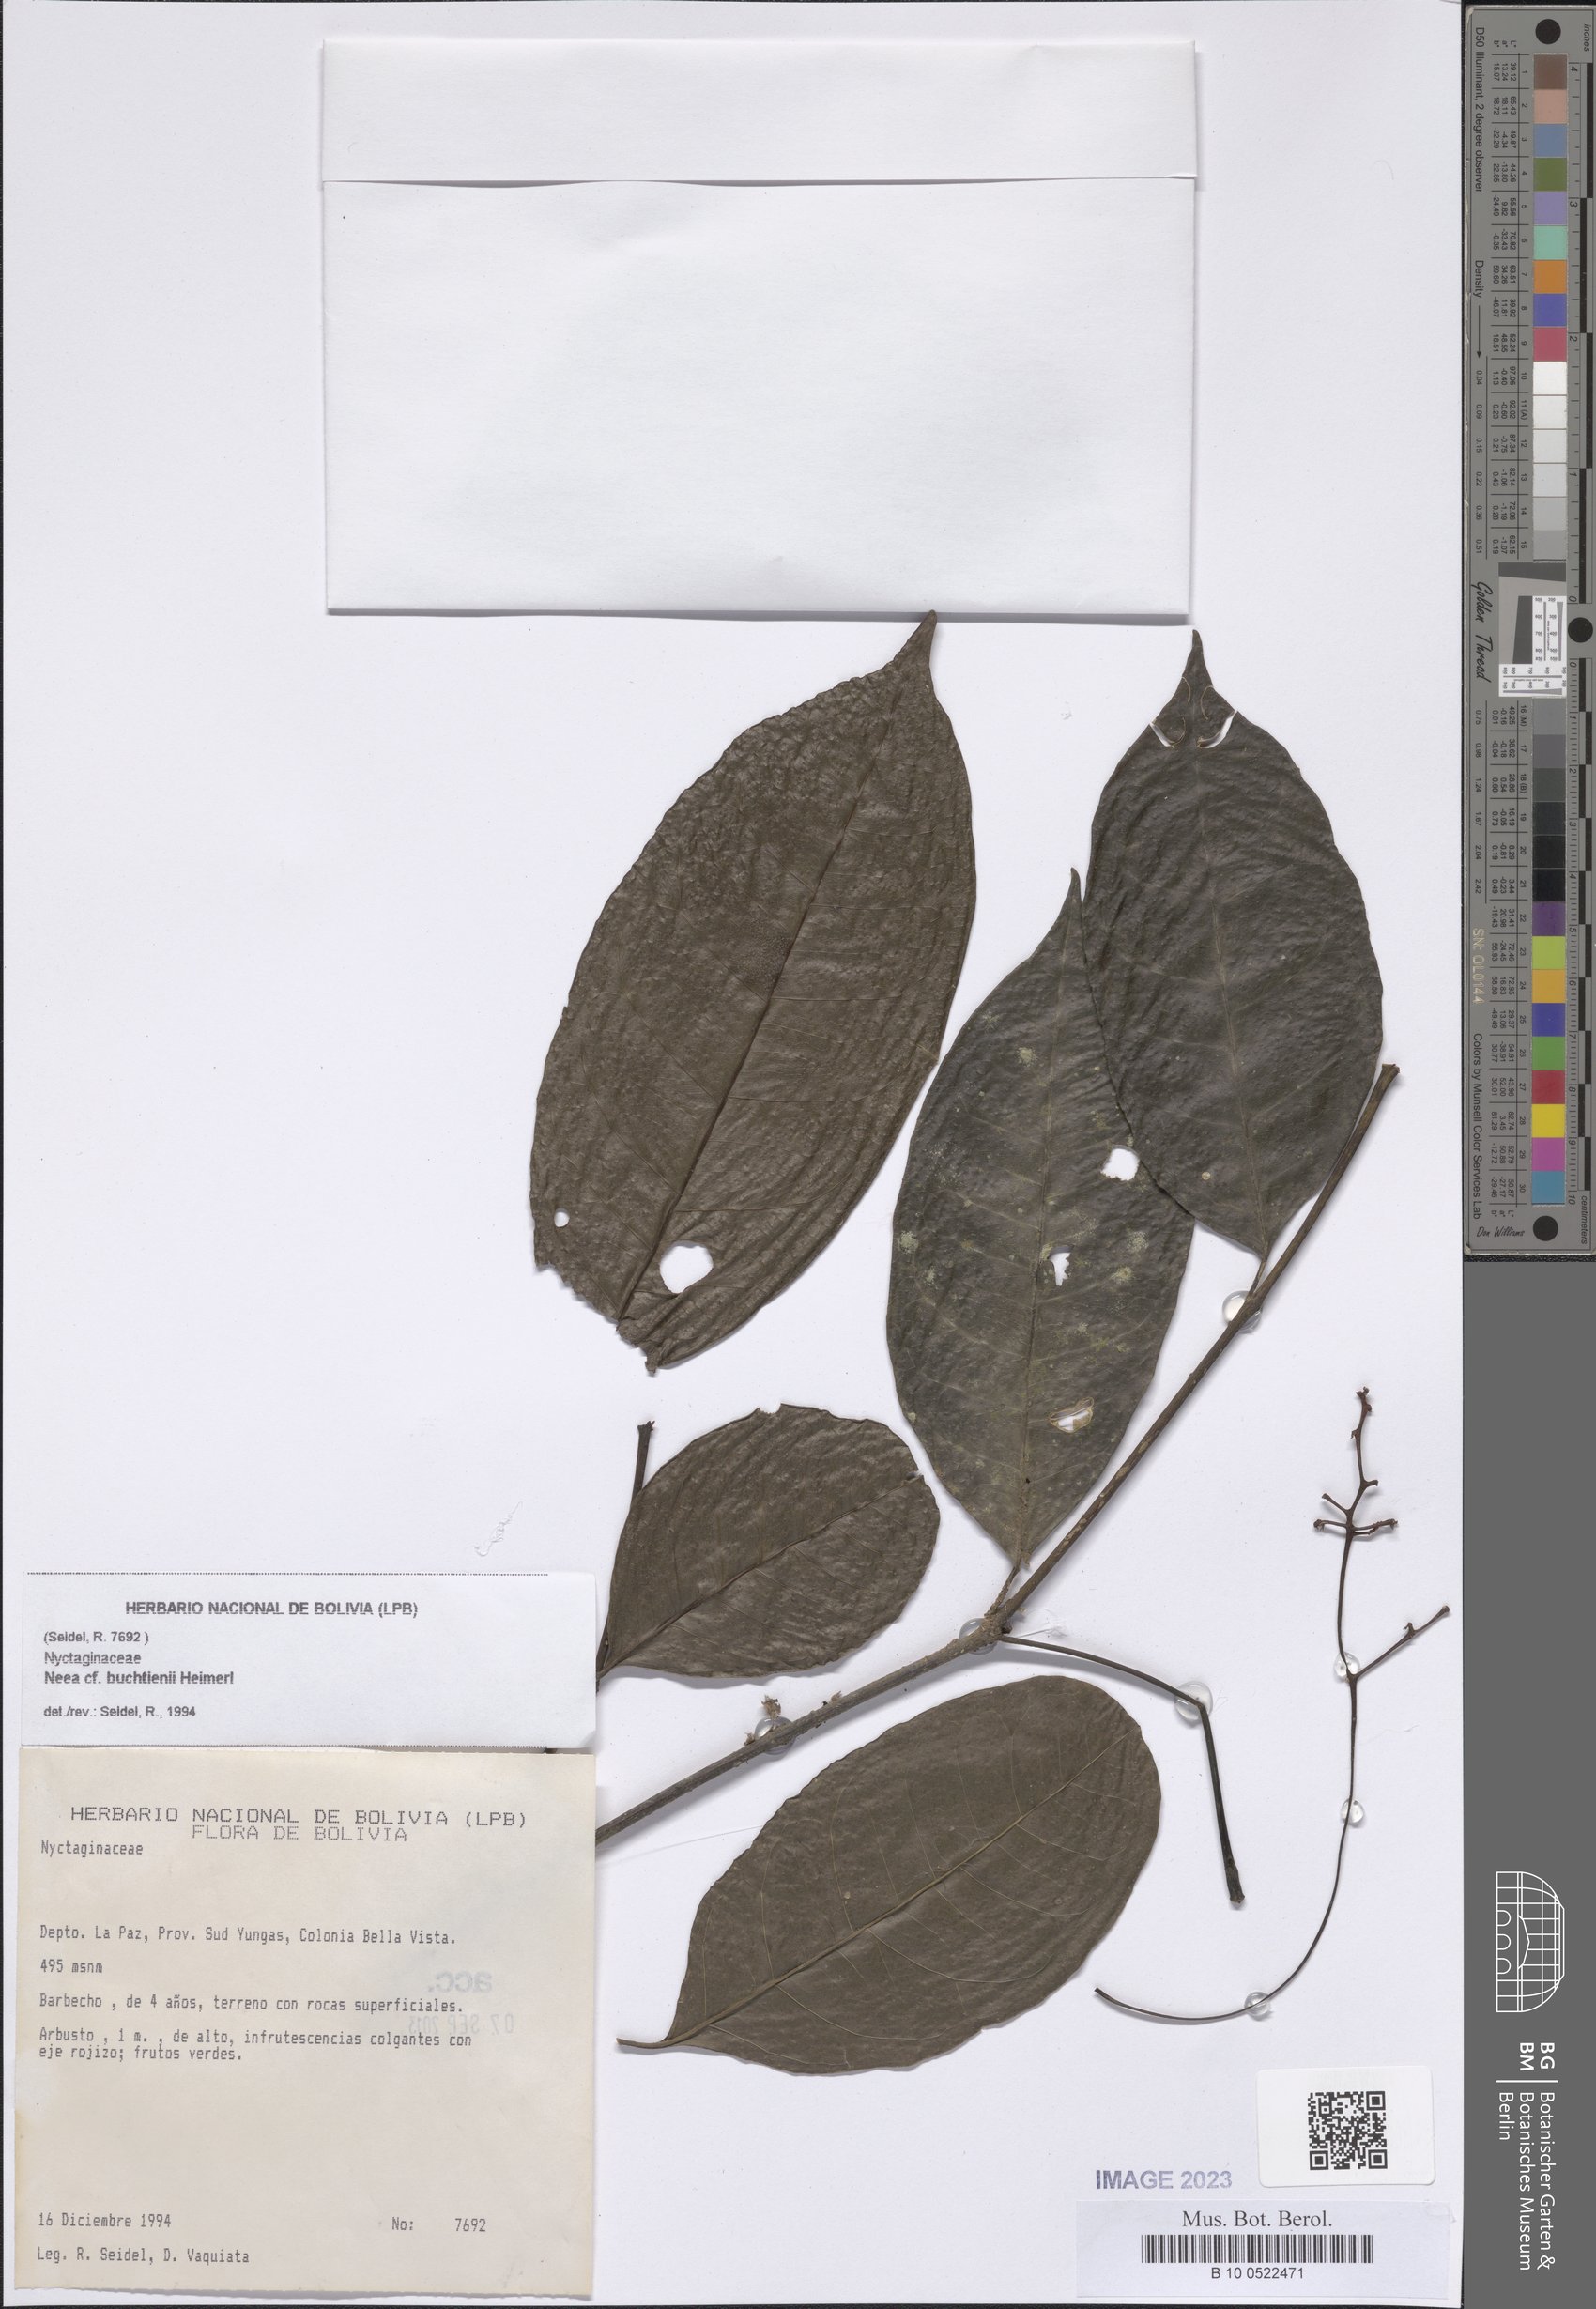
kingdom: Plantae
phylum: Tracheophyta
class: Magnoliopsida
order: Caryophyllales
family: Nyctaginaceae
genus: Neea
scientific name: Neea
